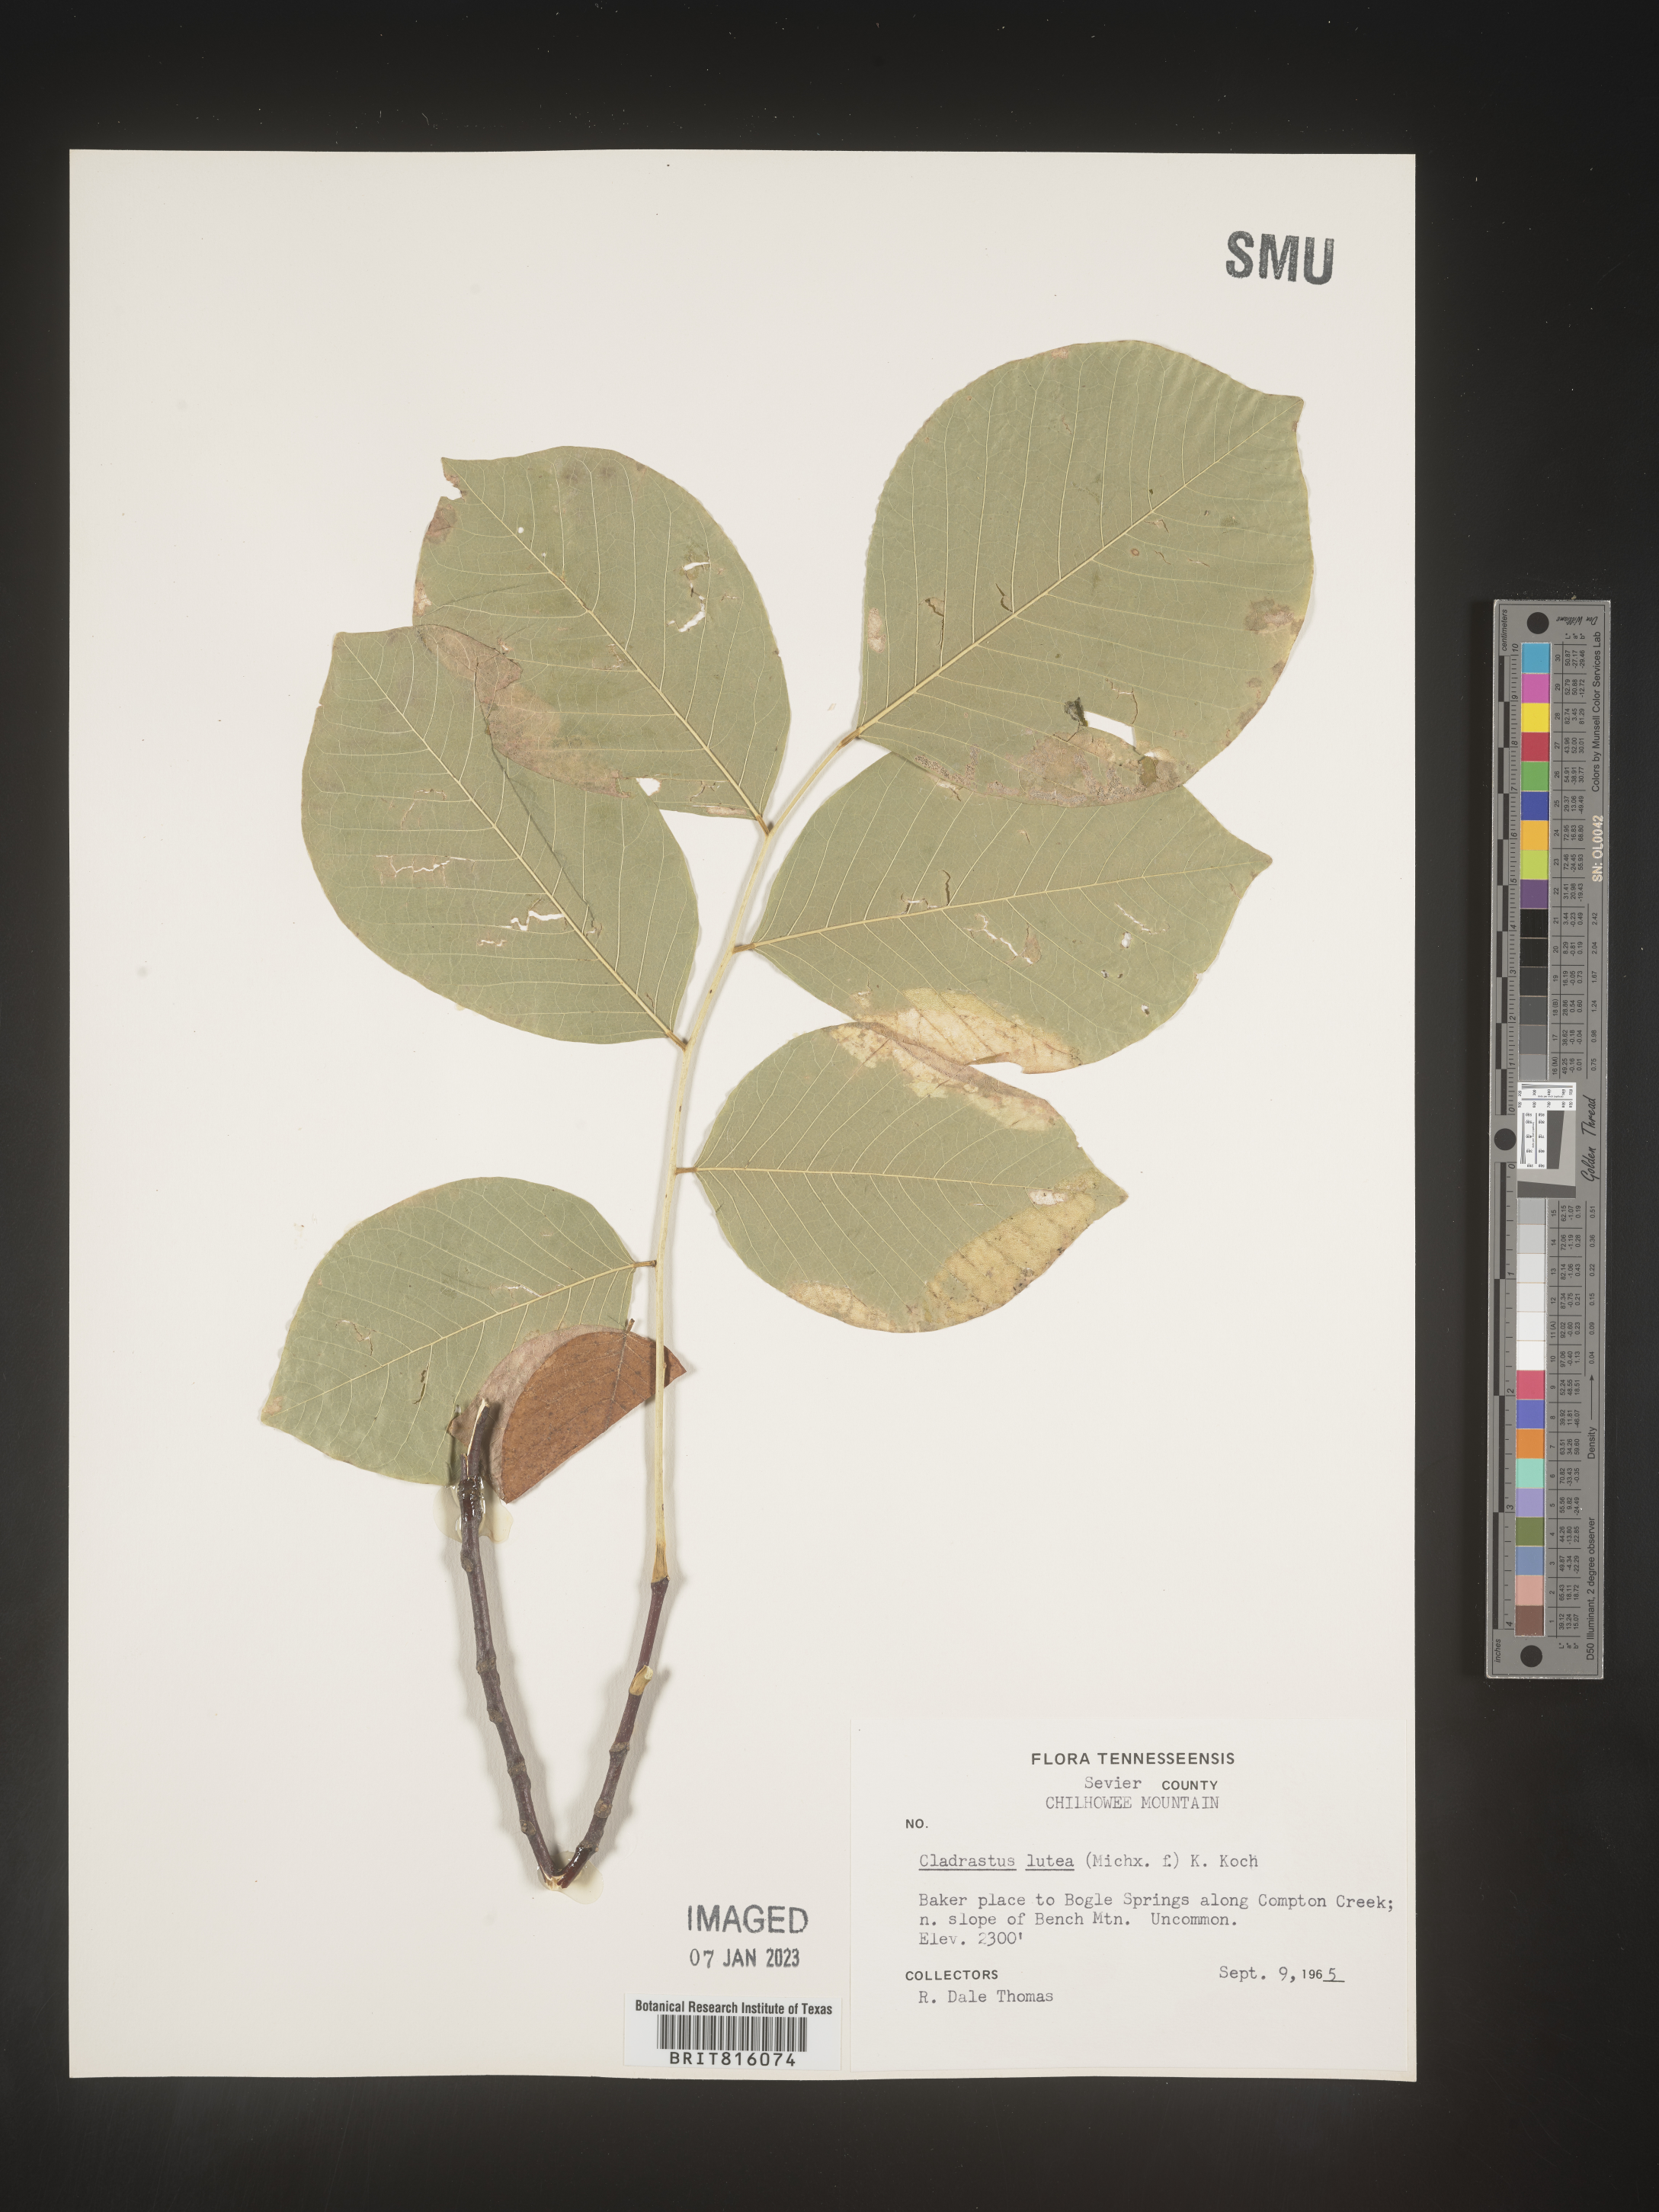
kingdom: Plantae
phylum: Tracheophyta
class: Magnoliopsida
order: Fabales
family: Fabaceae
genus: Cladrastis
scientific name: Cladrastis kentukea
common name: Kentucky yellow-wood
